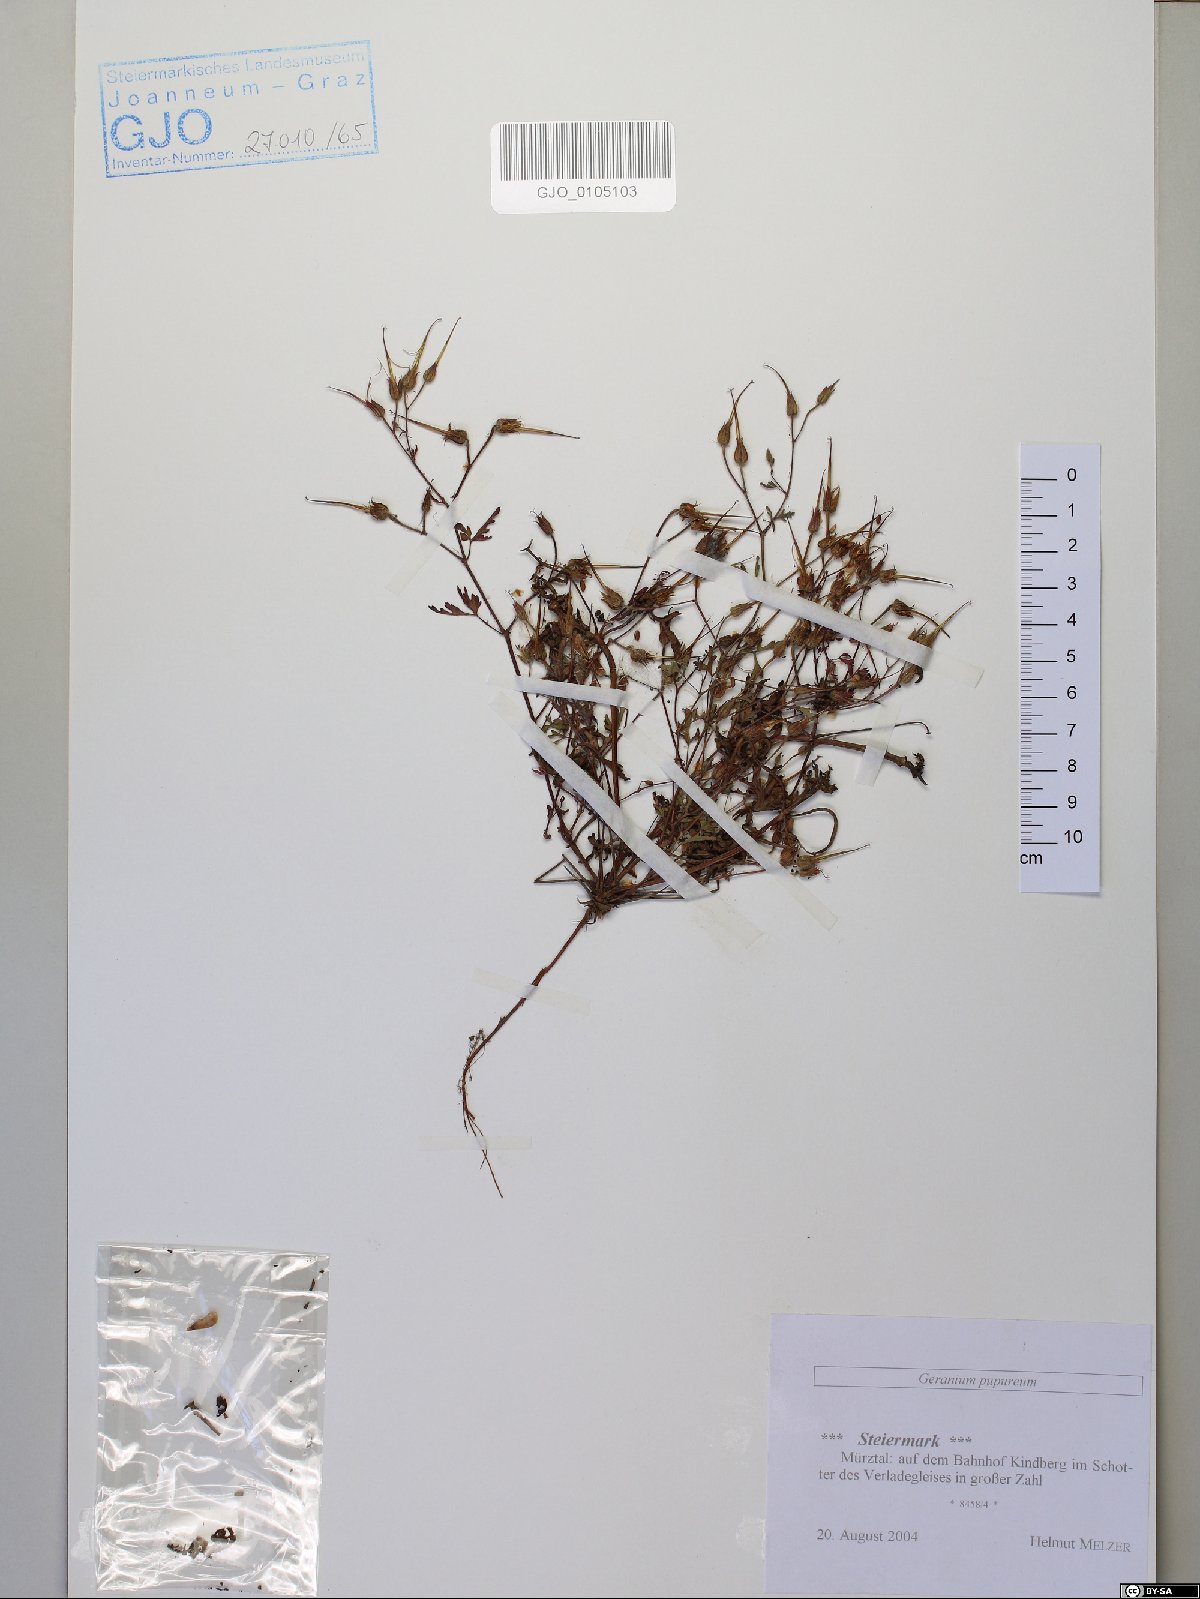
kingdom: Plantae
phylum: Tracheophyta
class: Magnoliopsida
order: Geraniales
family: Geraniaceae
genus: Geranium
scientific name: Geranium purpureum
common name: Little-robin
